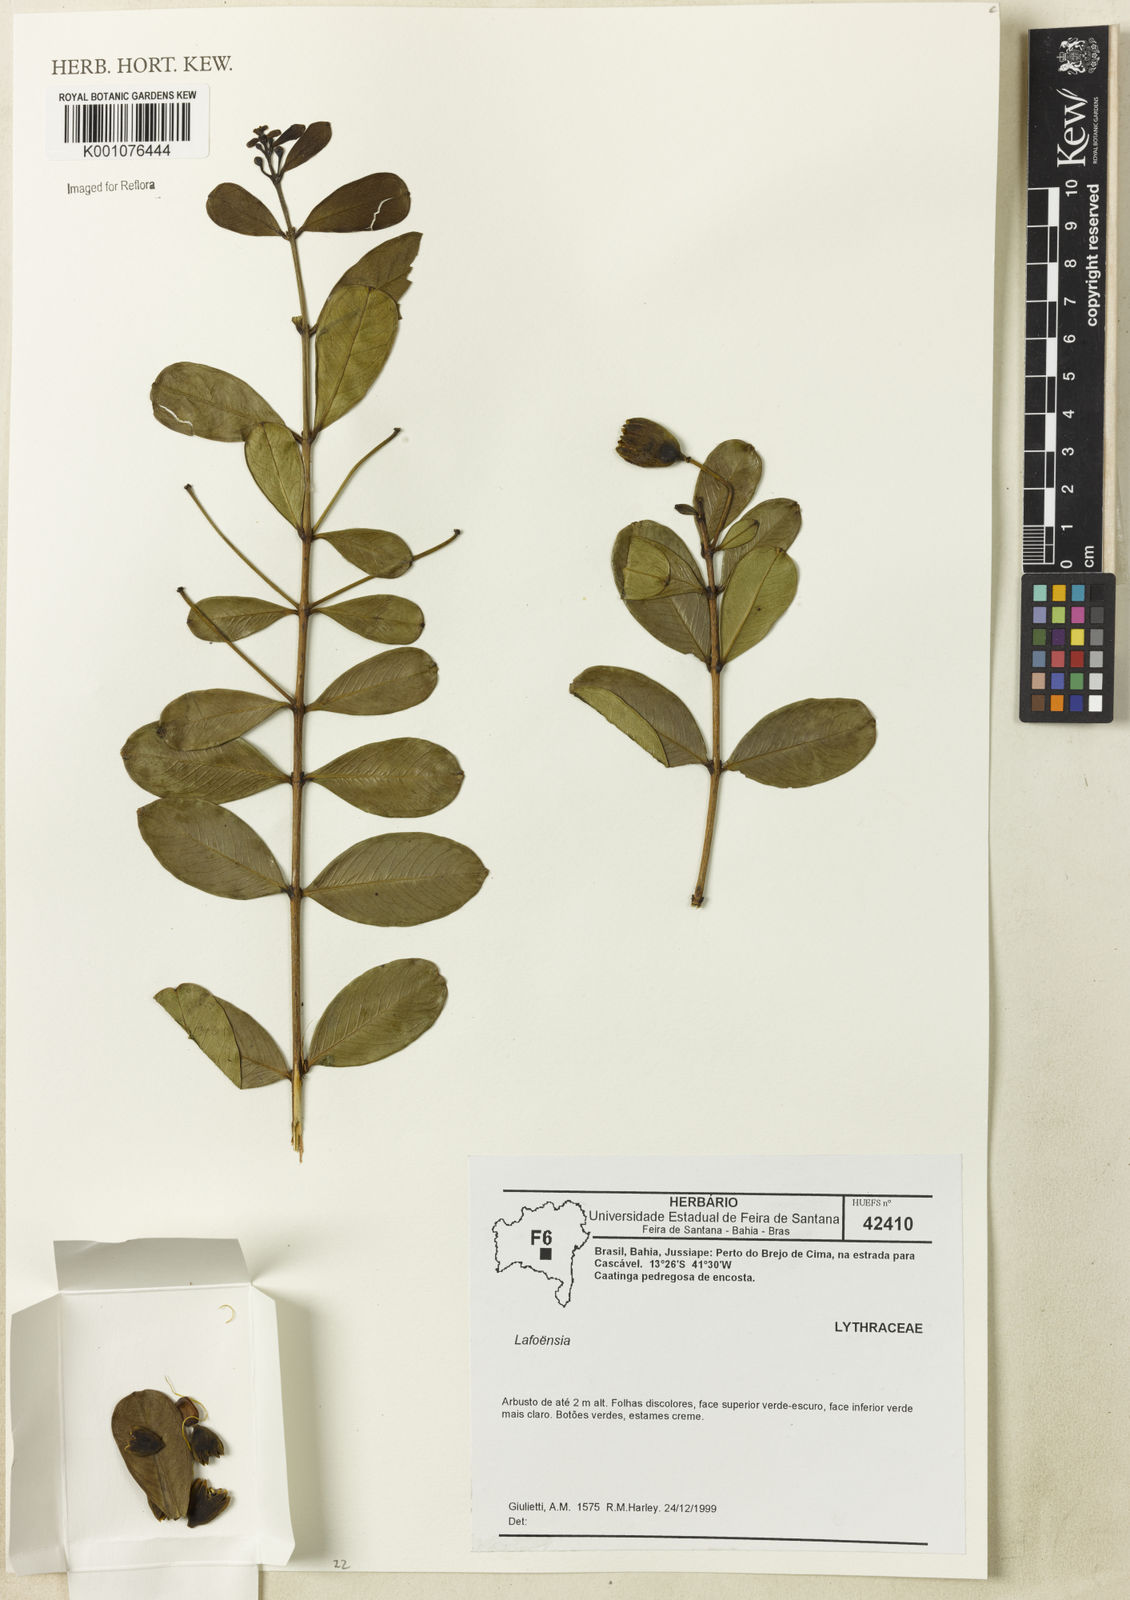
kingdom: Plantae
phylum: Tracheophyta
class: Magnoliopsida
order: Myrtales
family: Lythraceae
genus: Lafoensia
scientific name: Lafoensia
